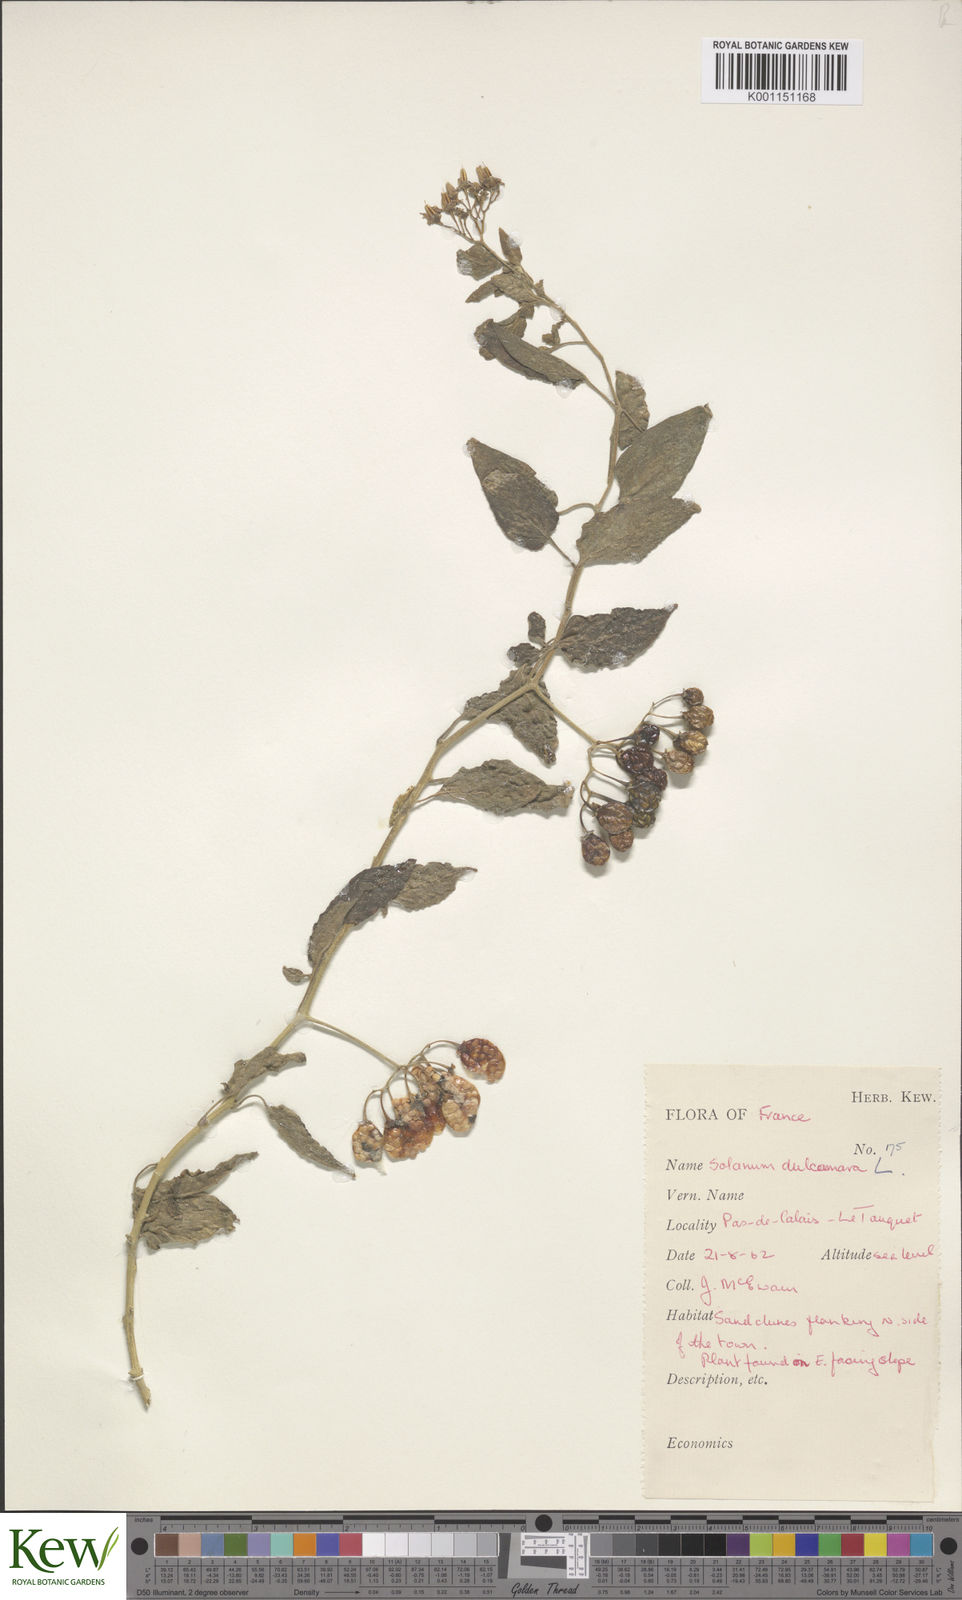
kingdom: Plantae
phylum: Tracheophyta
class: Magnoliopsida
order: Solanales
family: Solanaceae
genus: Solanum
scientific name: Solanum dulcamara
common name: Climbing nightshade
